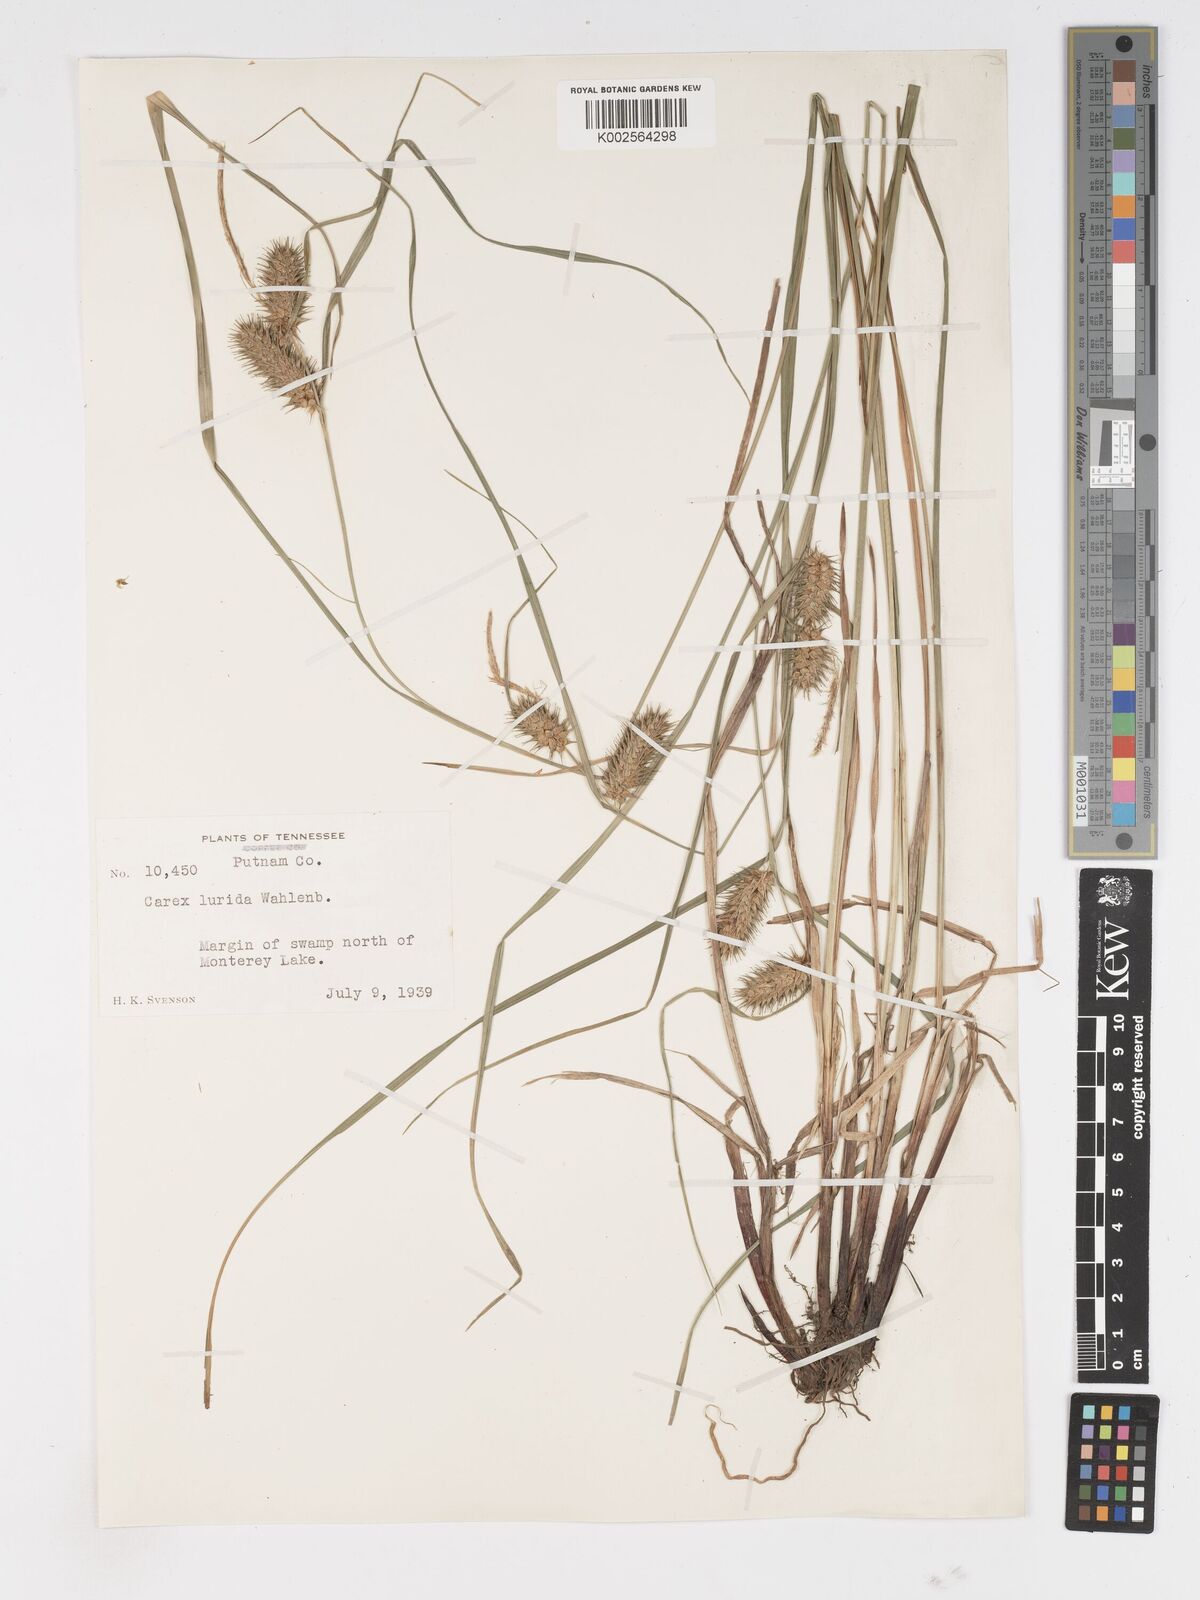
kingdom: Plantae
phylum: Tracheophyta
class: Liliopsida
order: Poales
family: Cyperaceae
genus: Carex
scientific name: Carex lurida
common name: Sallow sedge
